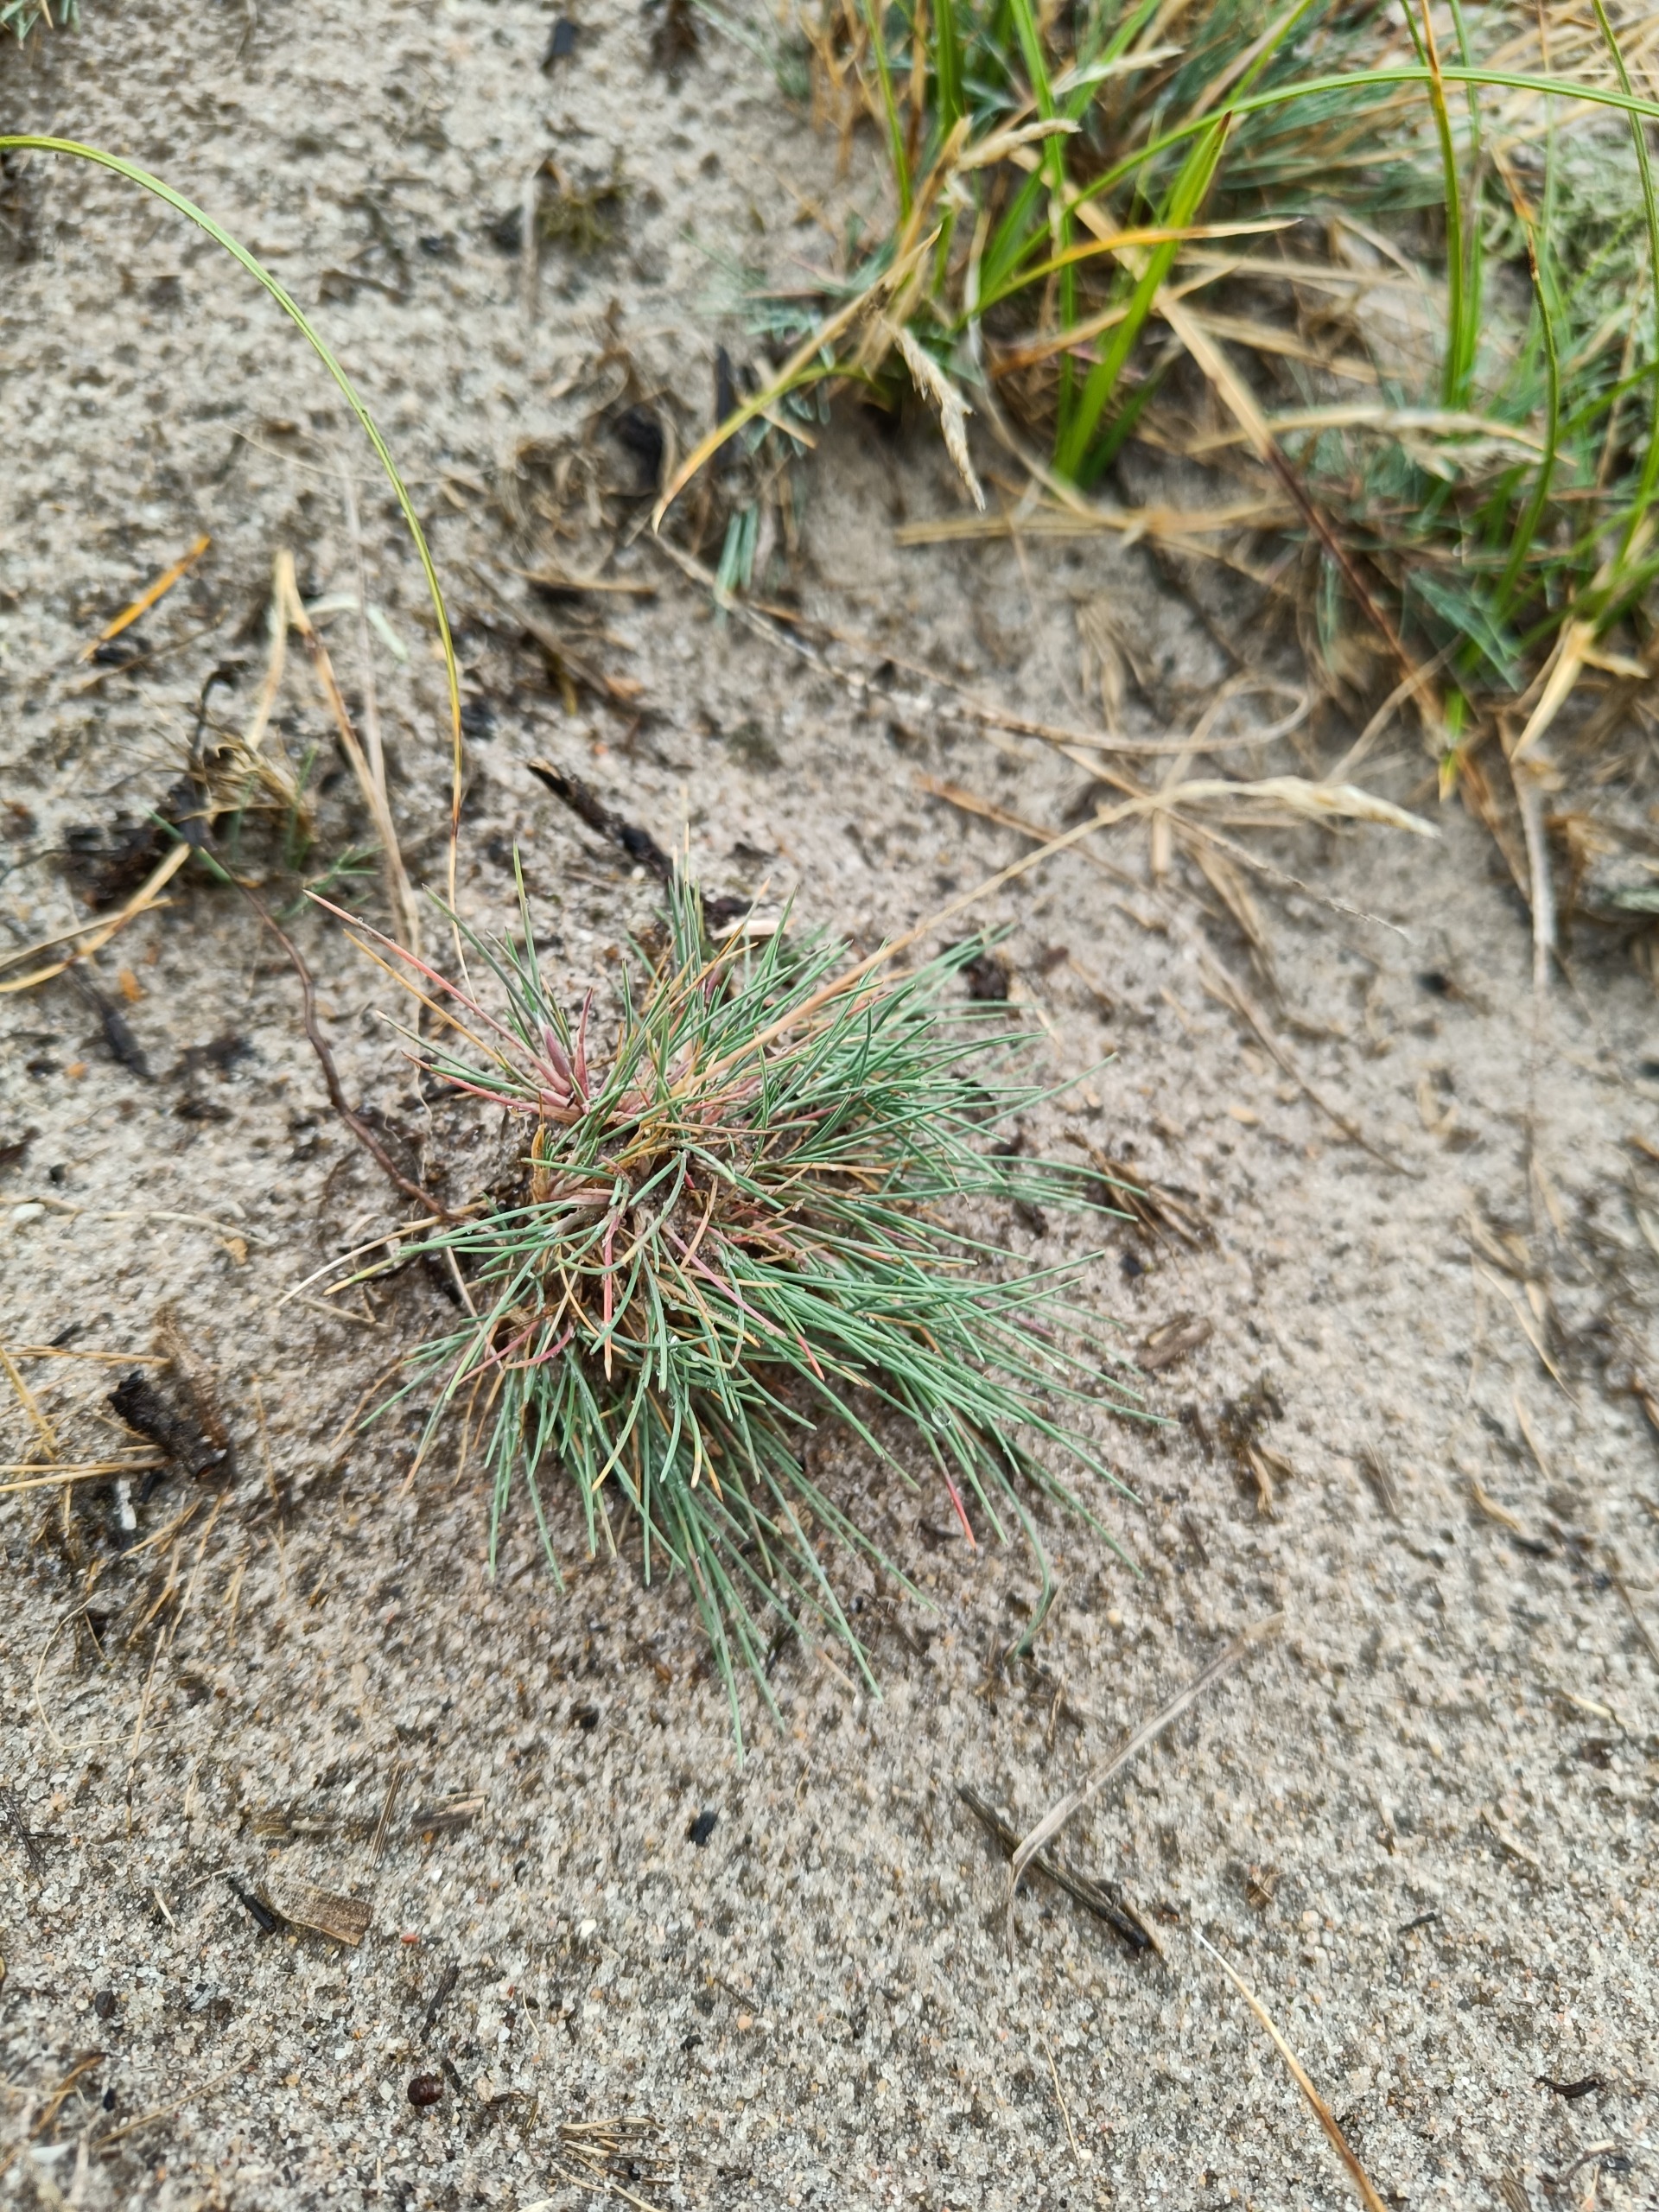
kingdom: Plantae
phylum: Tracheophyta
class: Liliopsida
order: Poales
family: Poaceae
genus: Corynephorus
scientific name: Corynephorus canescens
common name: Sandskæg
